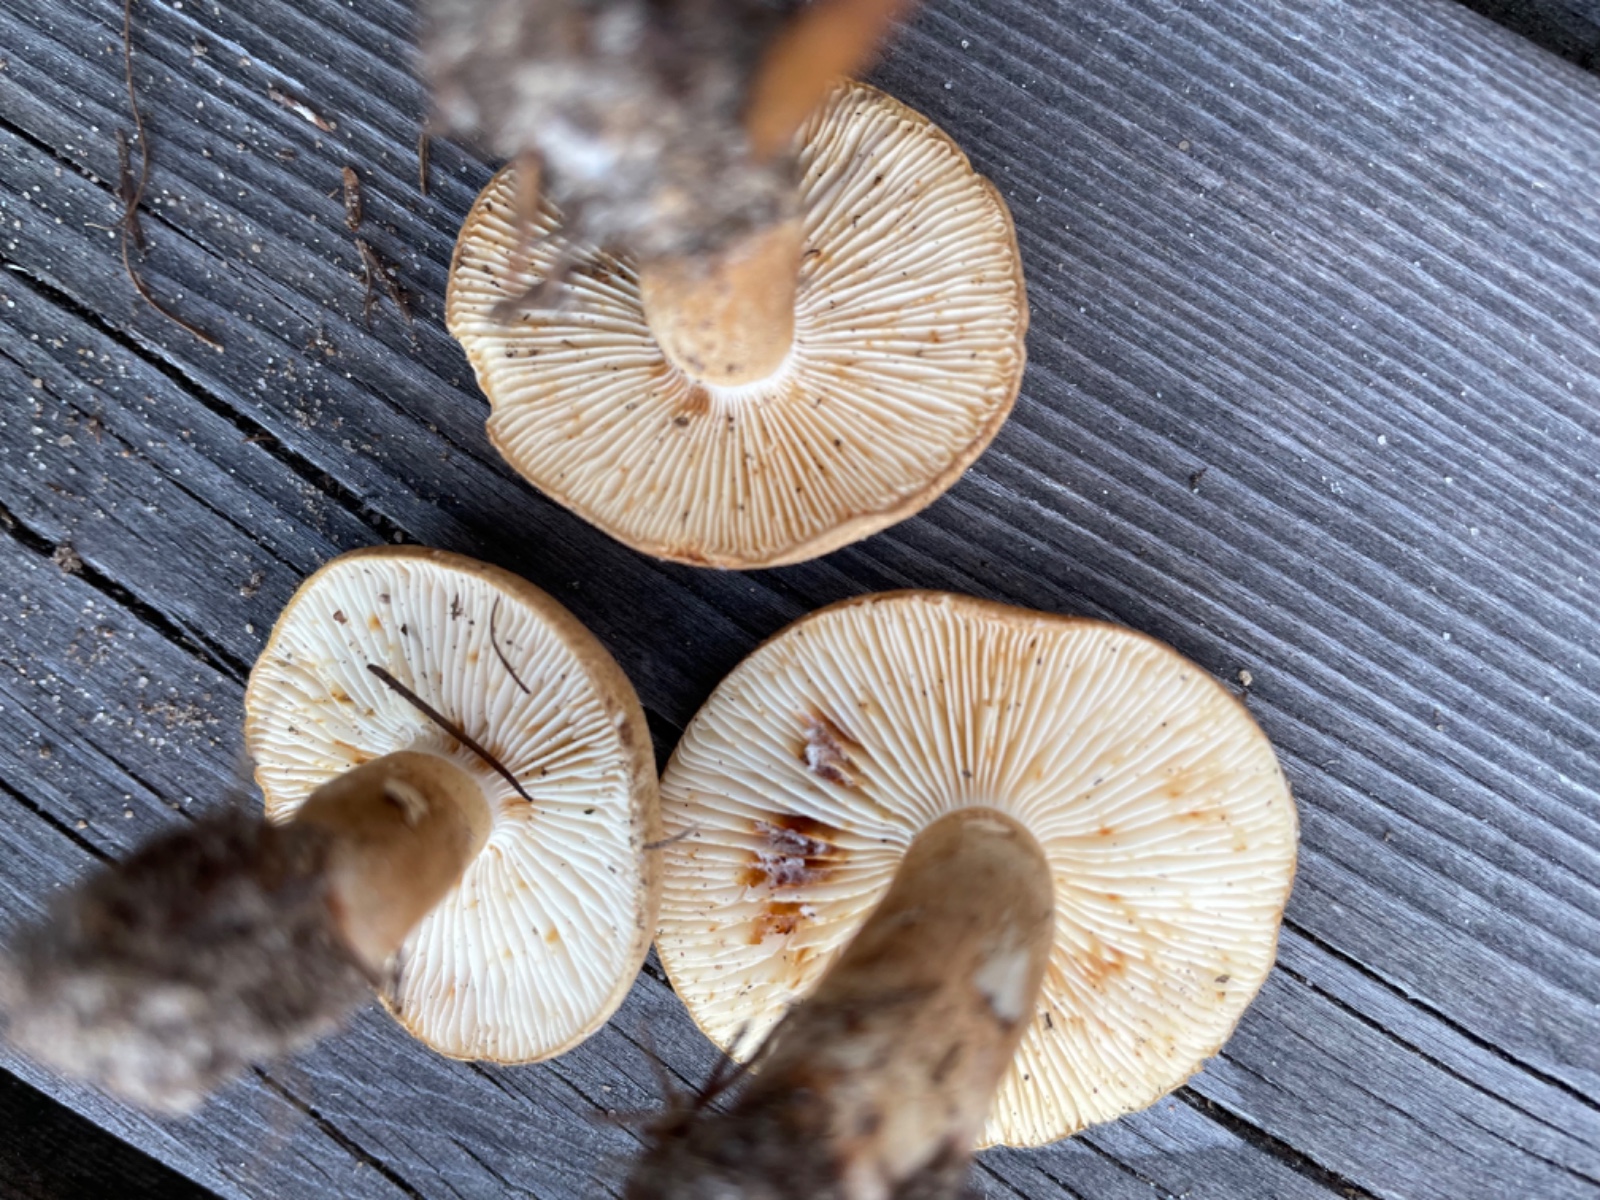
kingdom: Fungi
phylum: Basidiomycota
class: Agaricomycetes
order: Agaricales
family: Tricholomataceae
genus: Tricholoma
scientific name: Tricholoma psammopus
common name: grynstokket ridderhat
